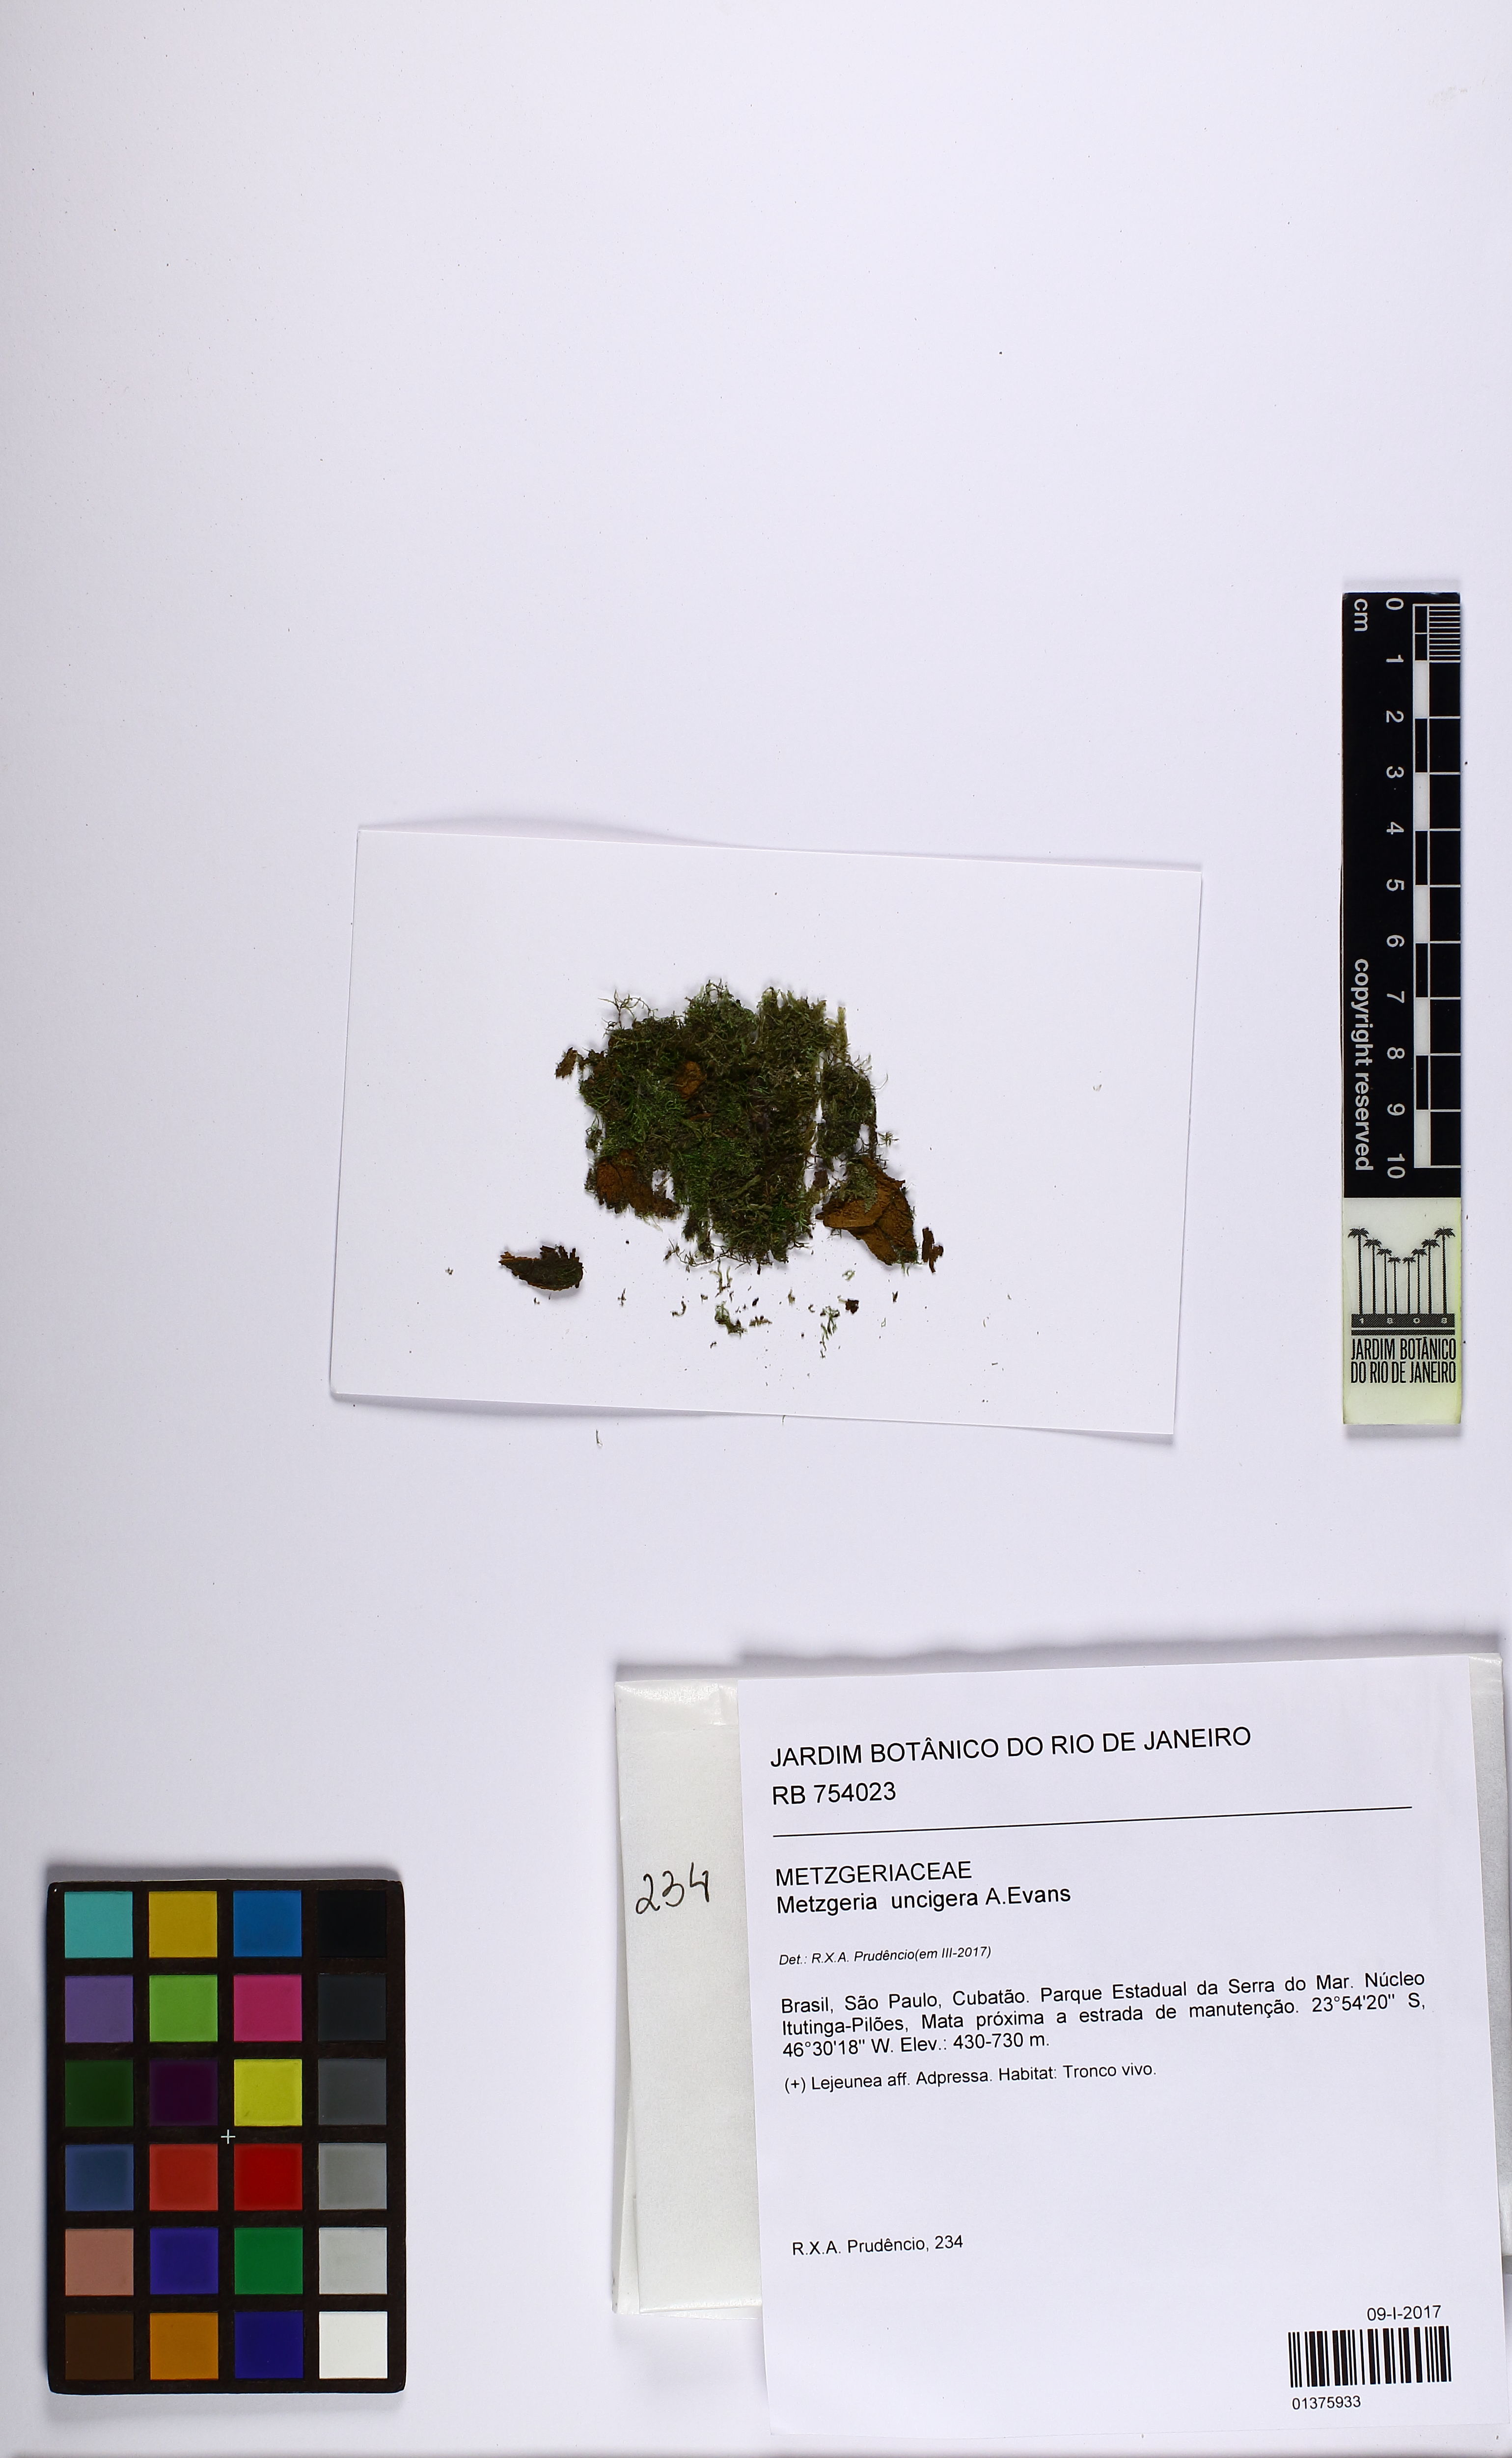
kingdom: Plantae
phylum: Marchantiophyta
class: Jungermanniopsida
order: Metzgeriales
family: Metzgeriaceae
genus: Metzgeria
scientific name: Metzgeria uncigera
